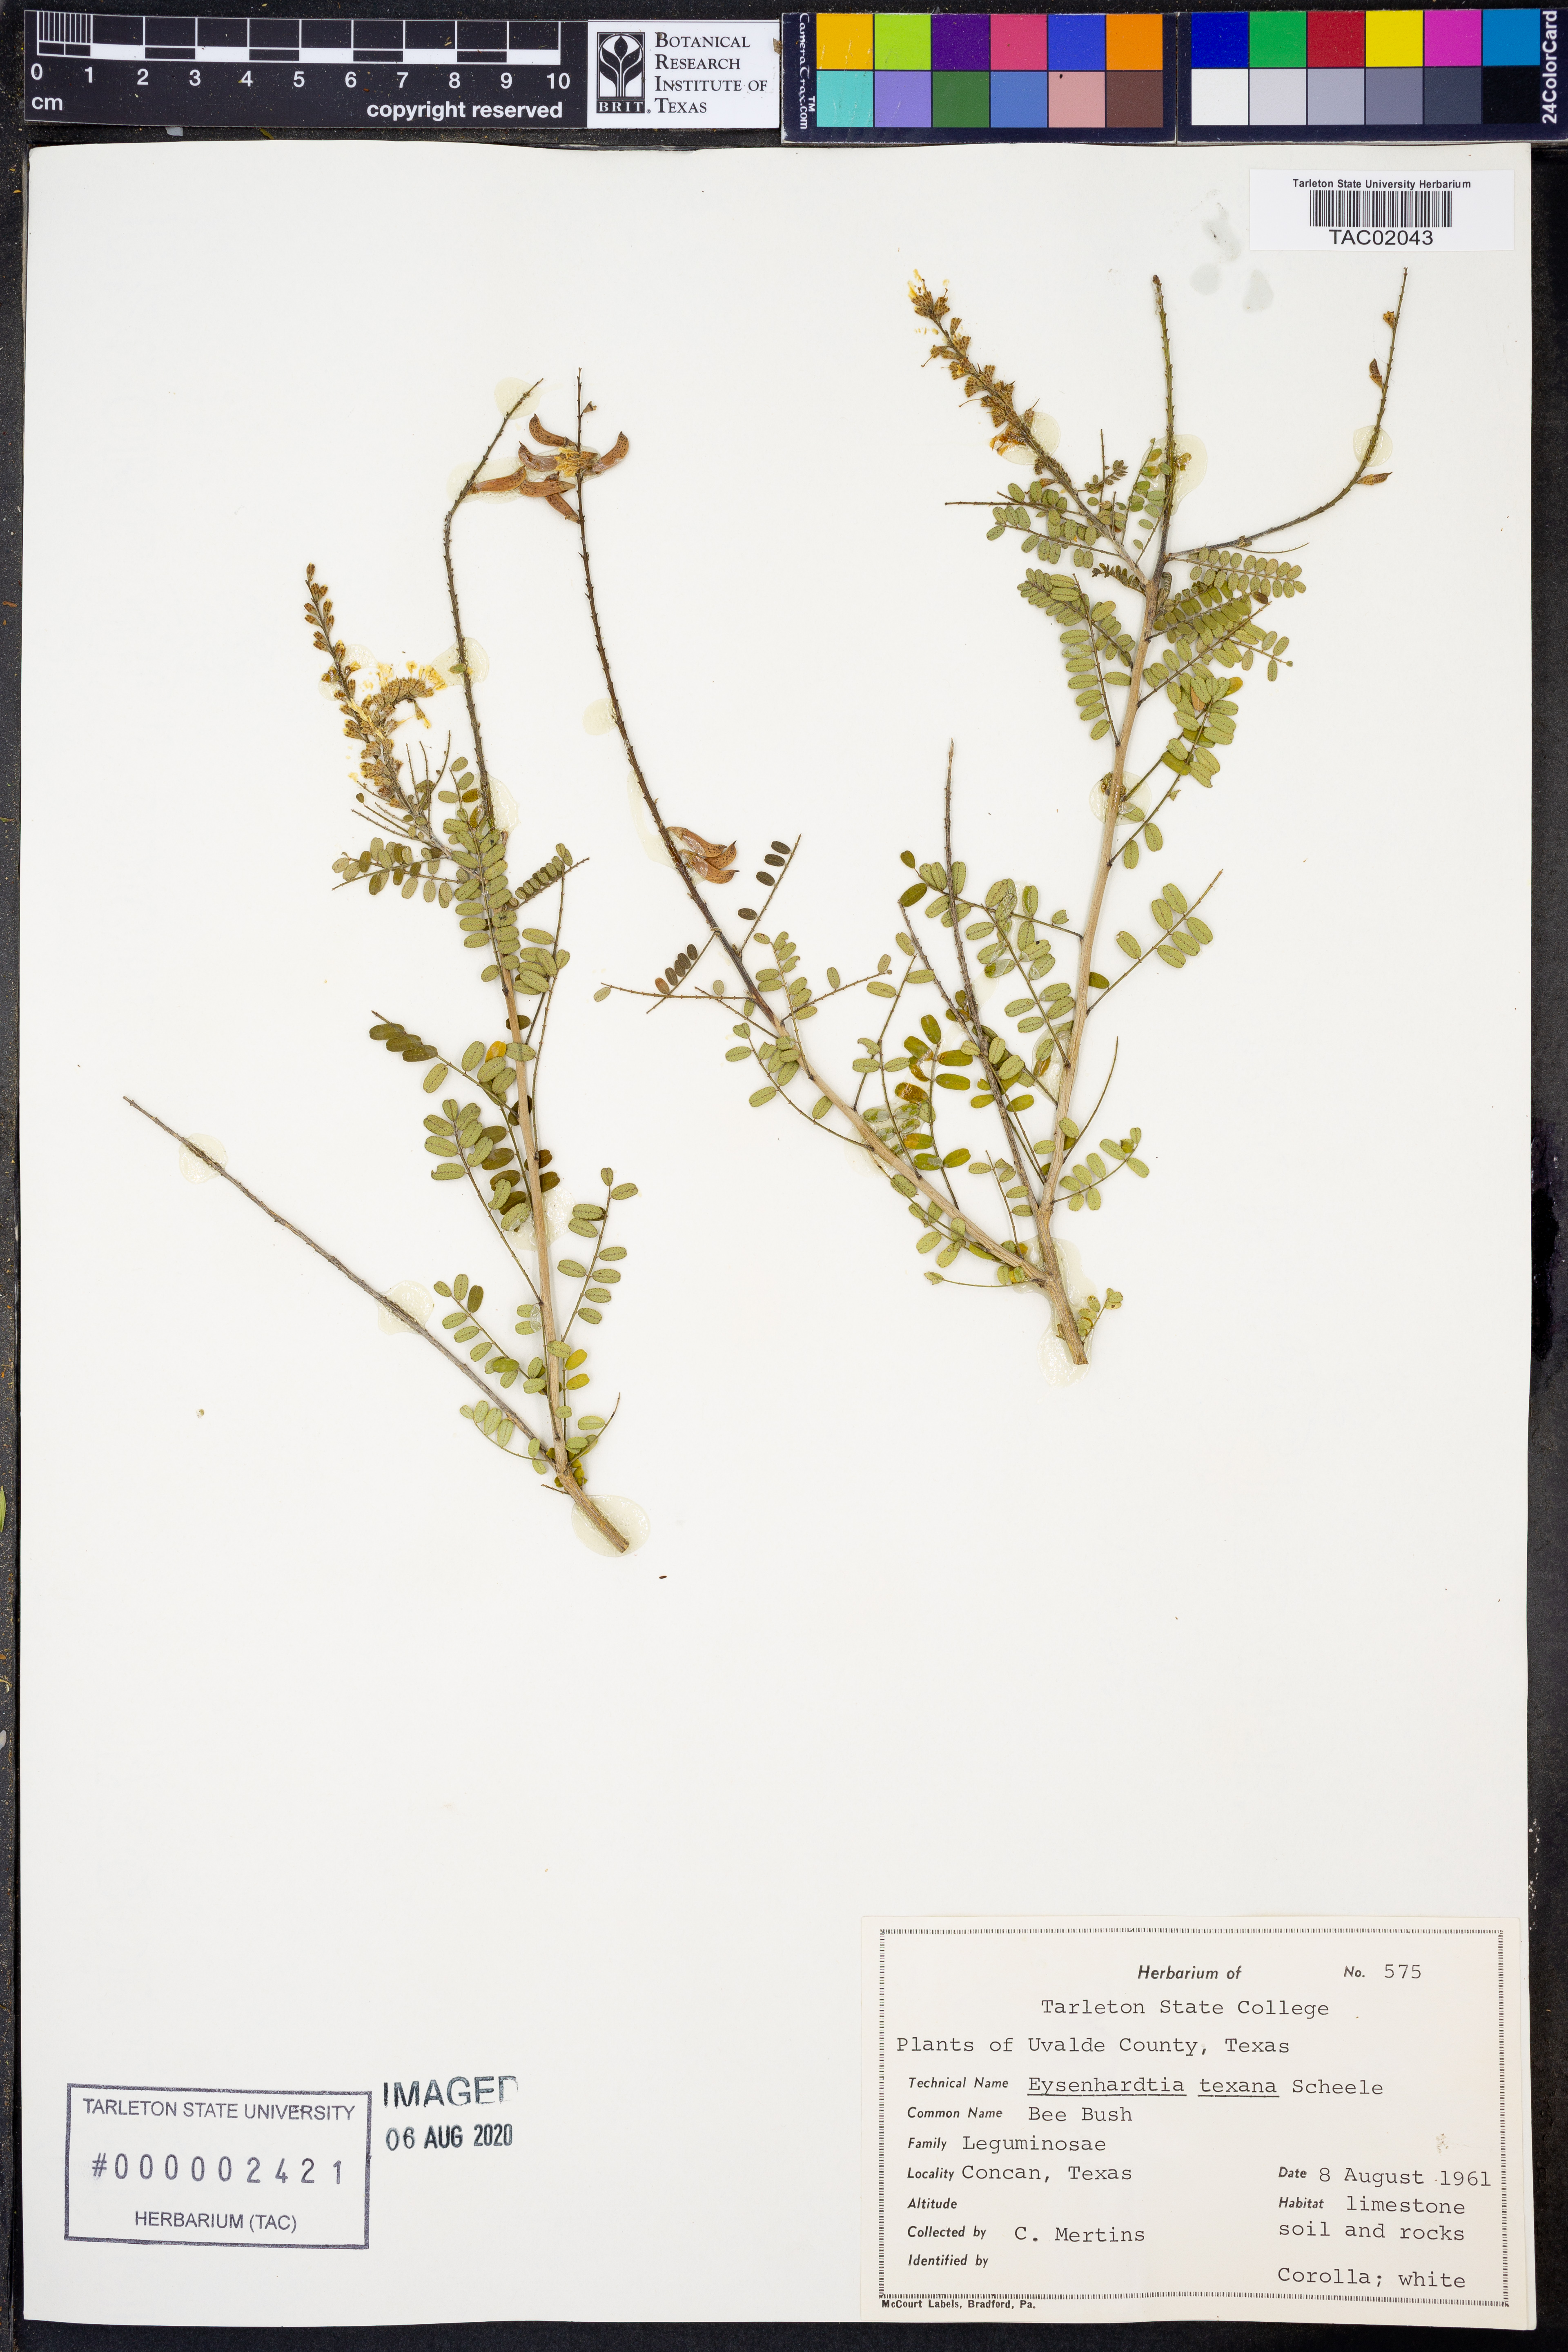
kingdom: Plantae
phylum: Tracheophyta
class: Magnoliopsida
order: Fabales
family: Fabaceae
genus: Eysenhardtia
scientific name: Eysenhardtia texana
